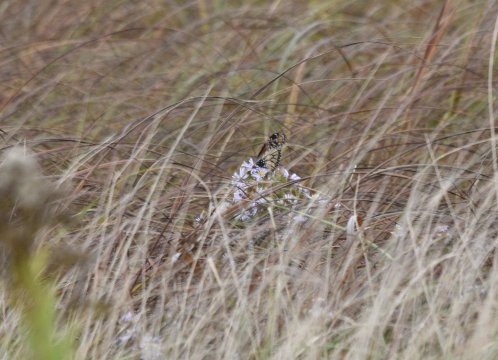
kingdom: Animalia
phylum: Arthropoda
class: Insecta
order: Lepidoptera
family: Nymphalidae
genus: Danaus
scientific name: Danaus plexippus
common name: Monarch
